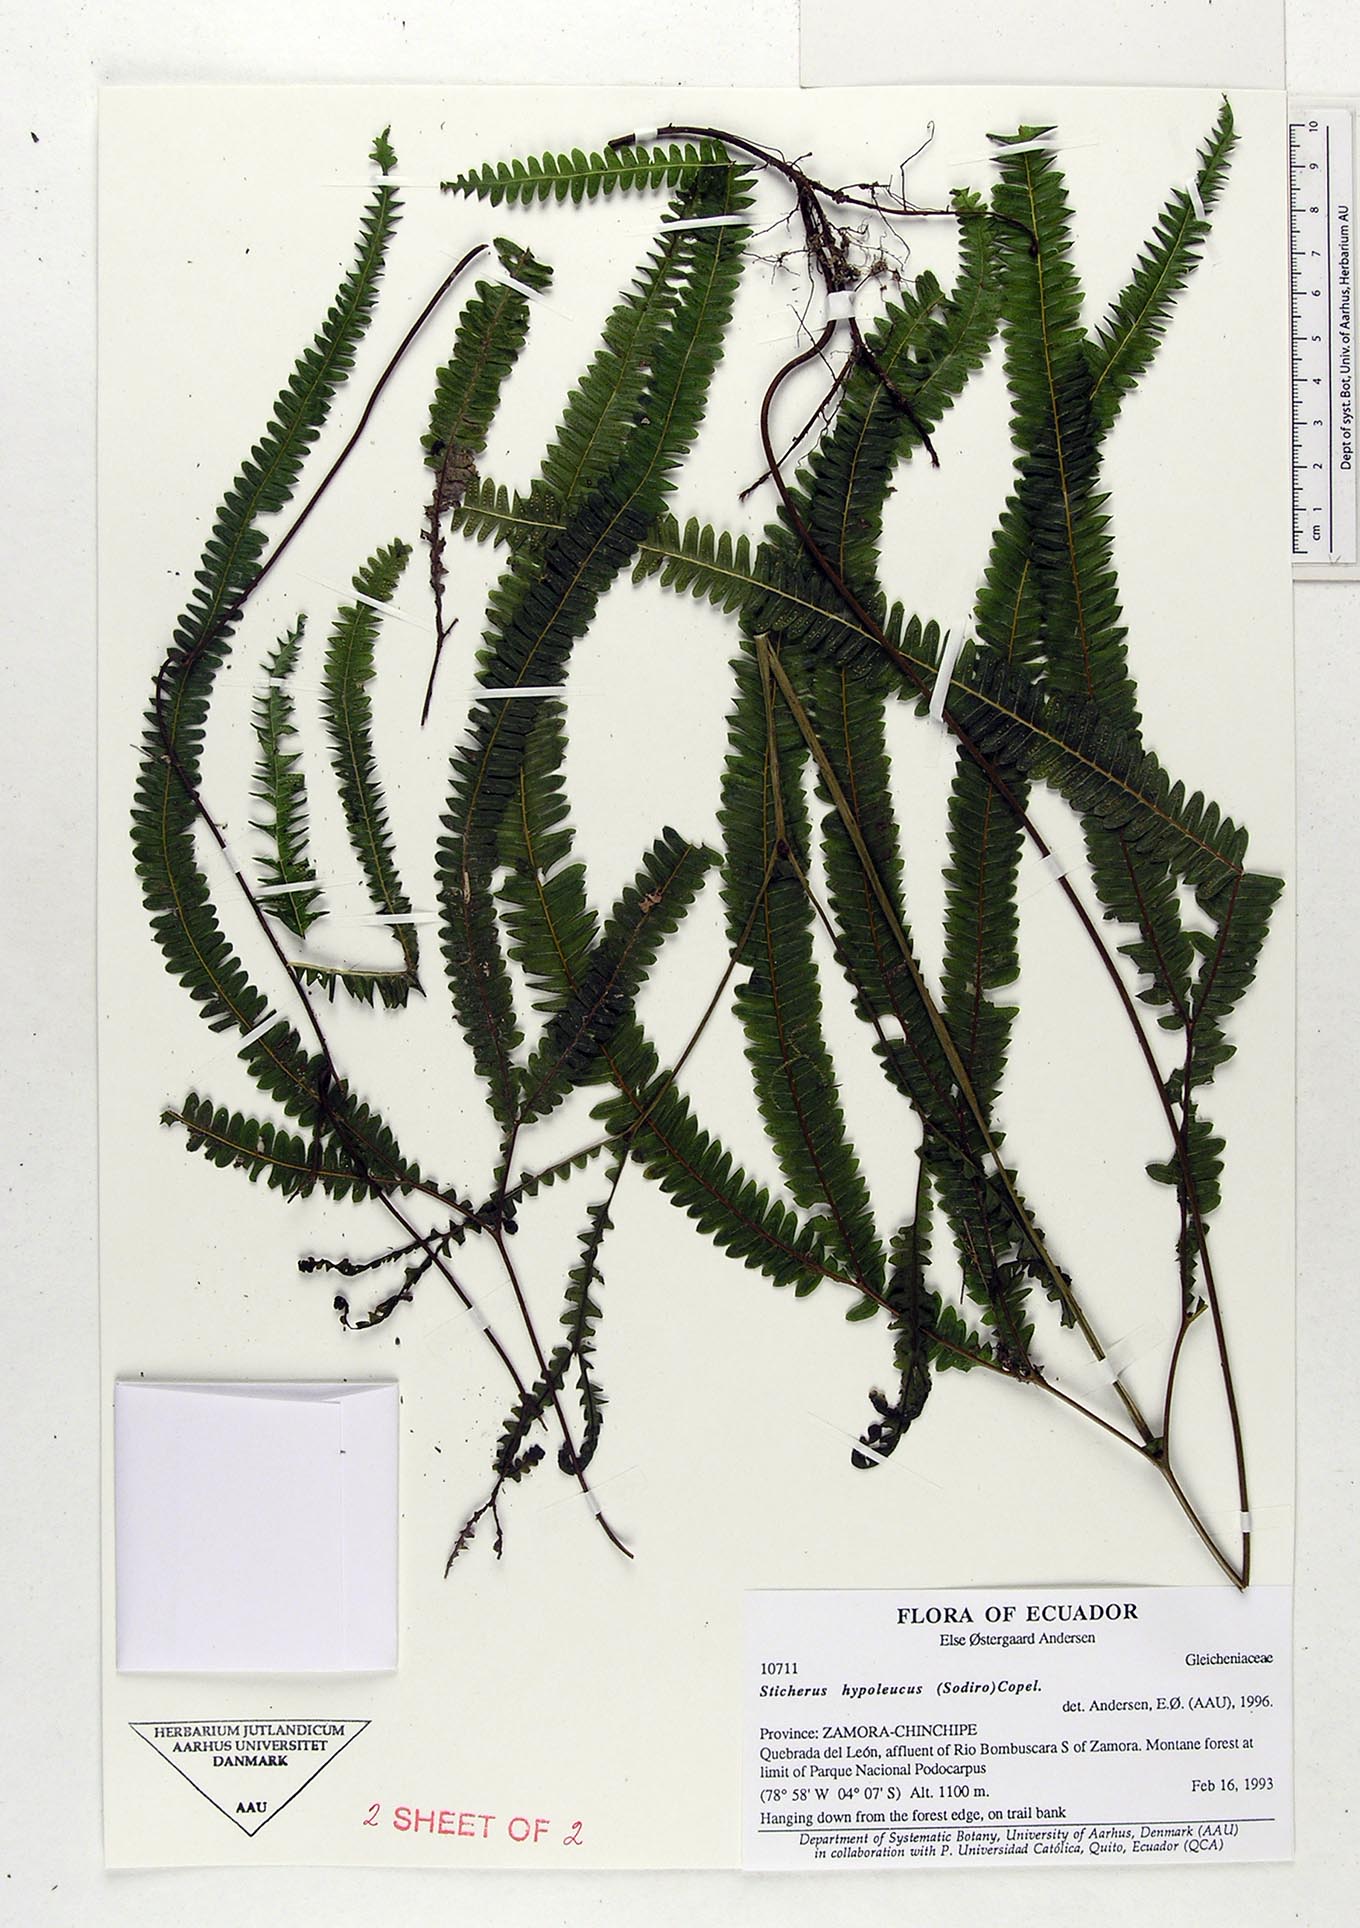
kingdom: Plantae
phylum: Tracheophyta
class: Polypodiopsida
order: Gleicheniales
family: Gleicheniaceae
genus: Sticherus
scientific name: Sticherus hypoleucus
